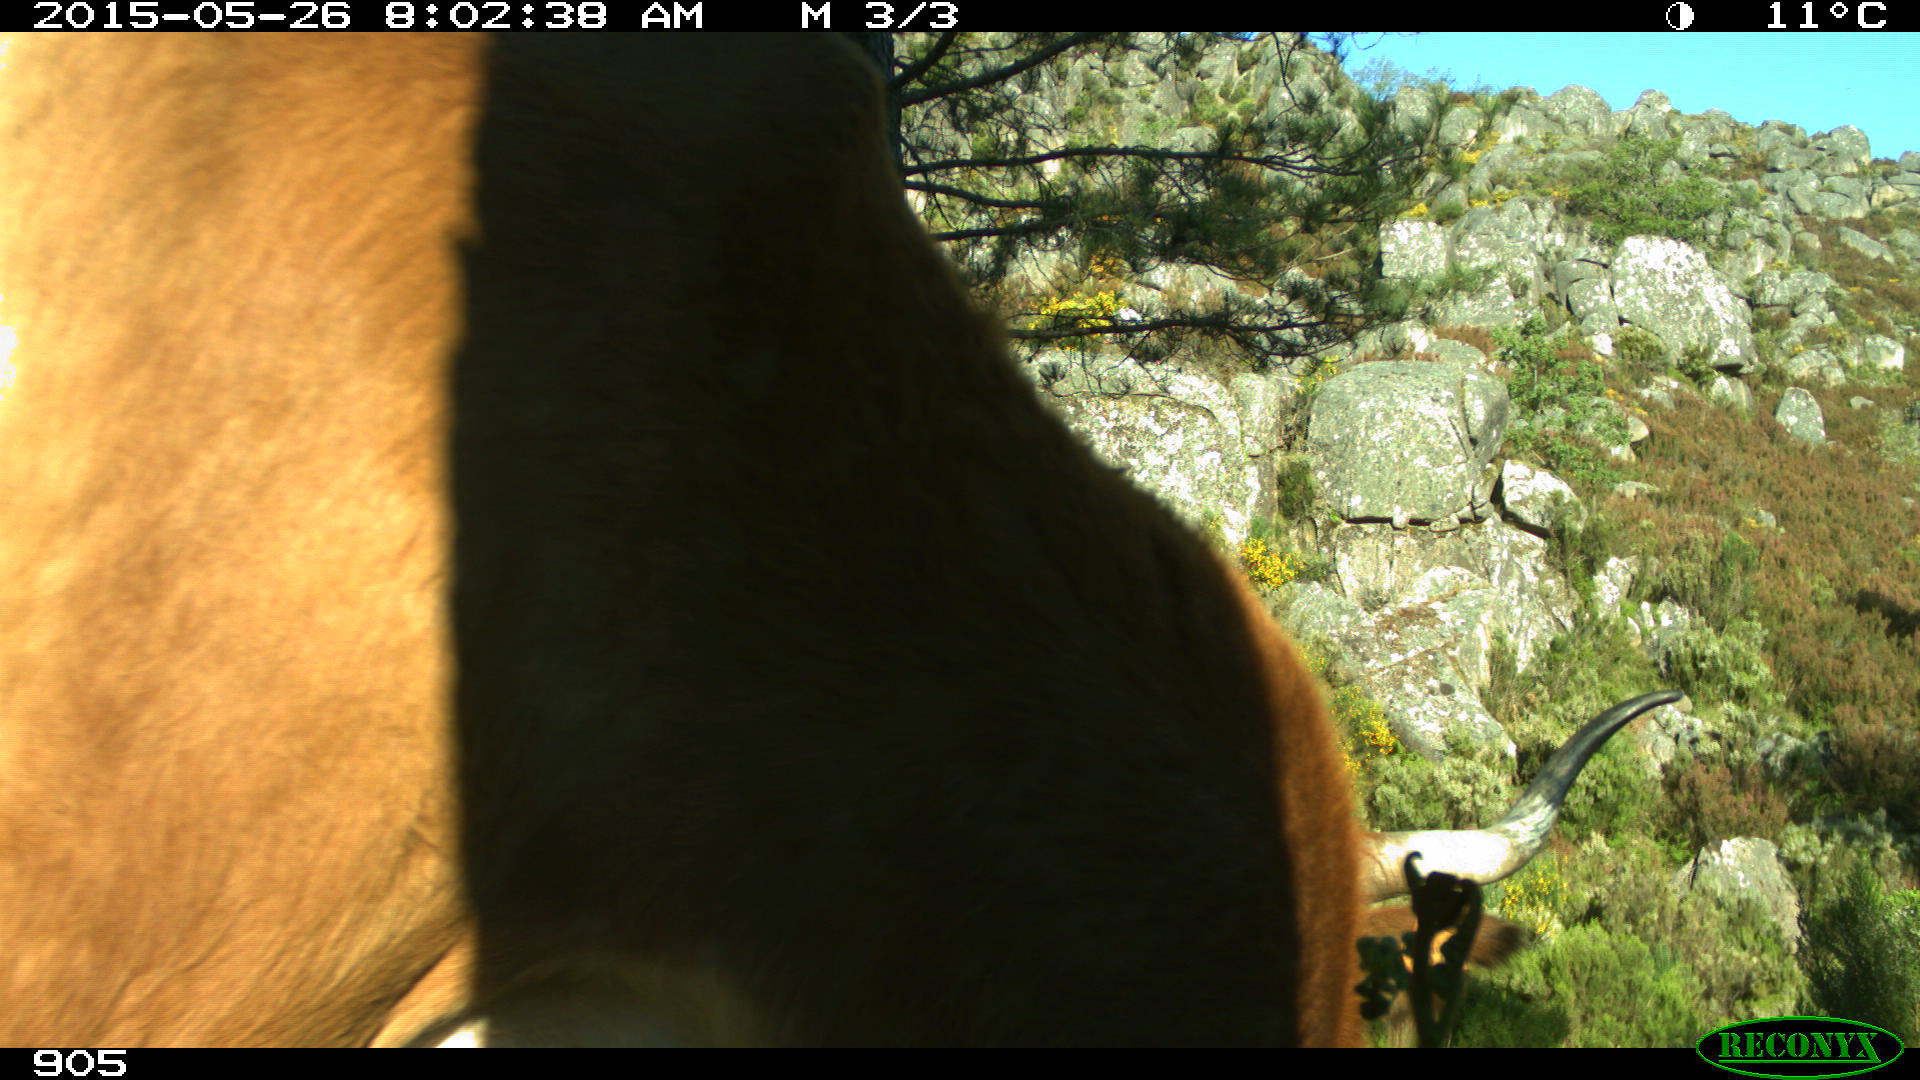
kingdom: Animalia
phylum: Chordata
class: Mammalia
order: Artiodactyla
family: Bovidae
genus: Bos
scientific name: Bos taurus
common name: Domesticated cattle
